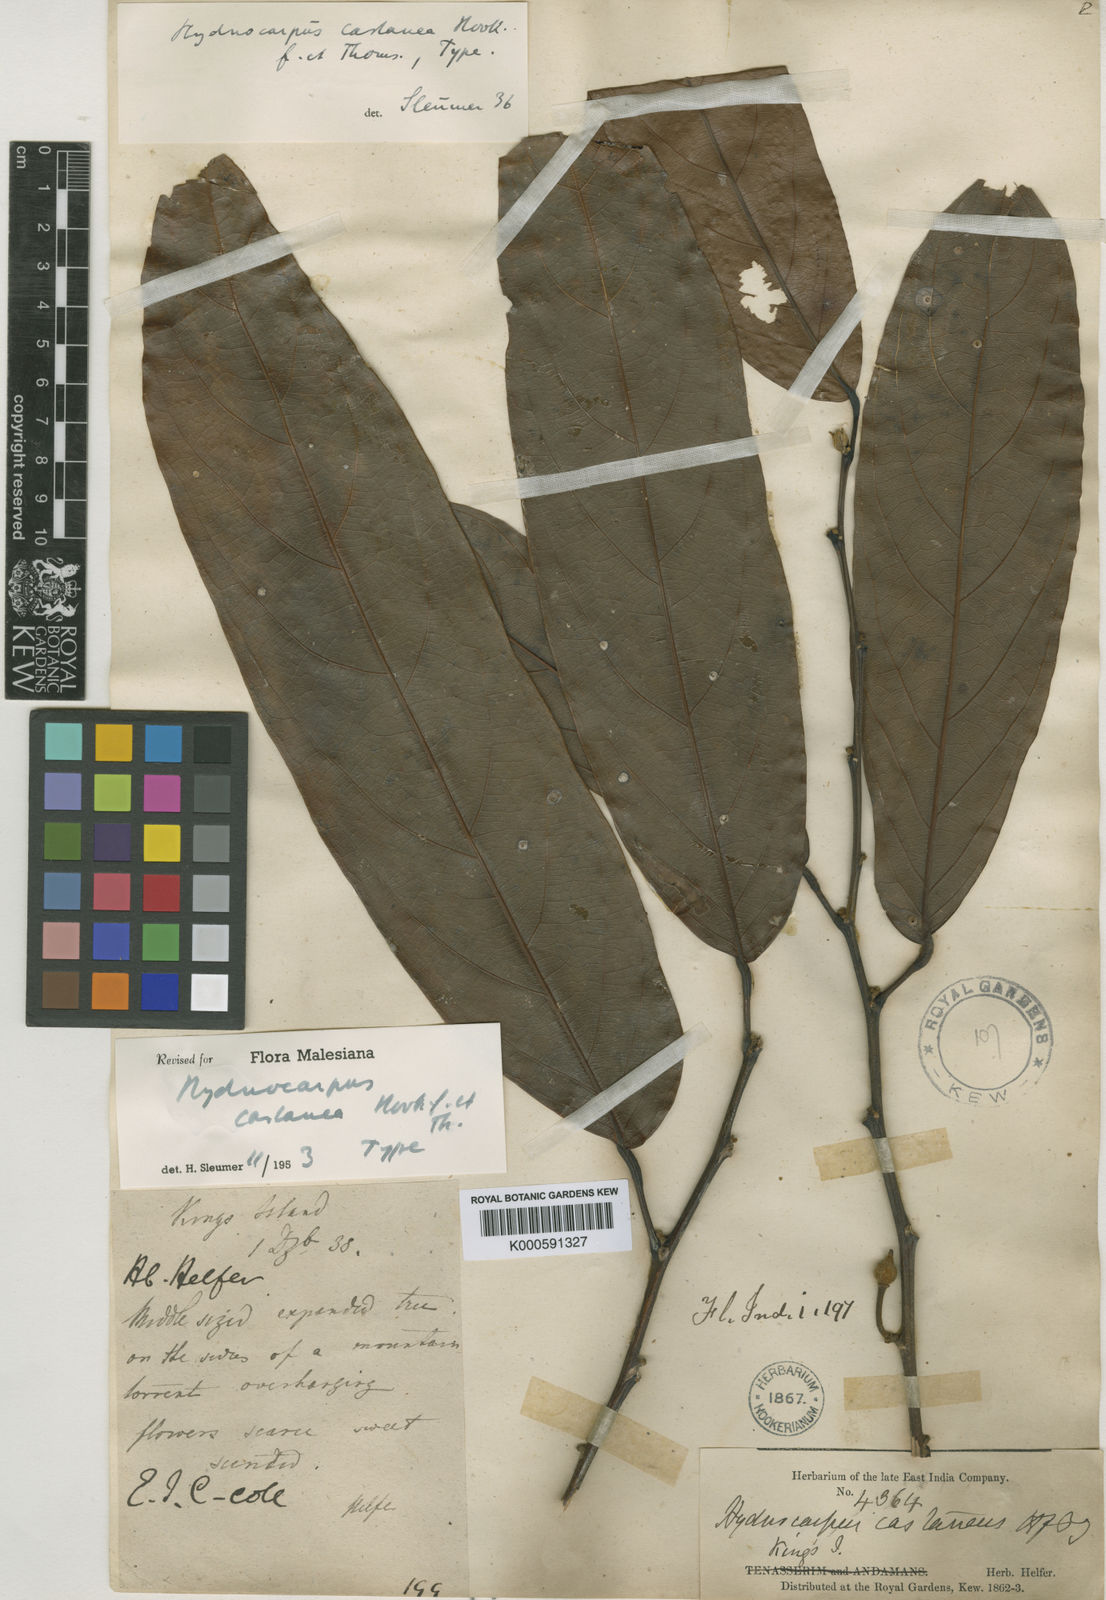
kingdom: Plantae
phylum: Tracheophyta
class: Magnoliopsida
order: Malpighiales
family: Achariaceae
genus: Hydnocarpus
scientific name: Hydnocarpus castaneus
